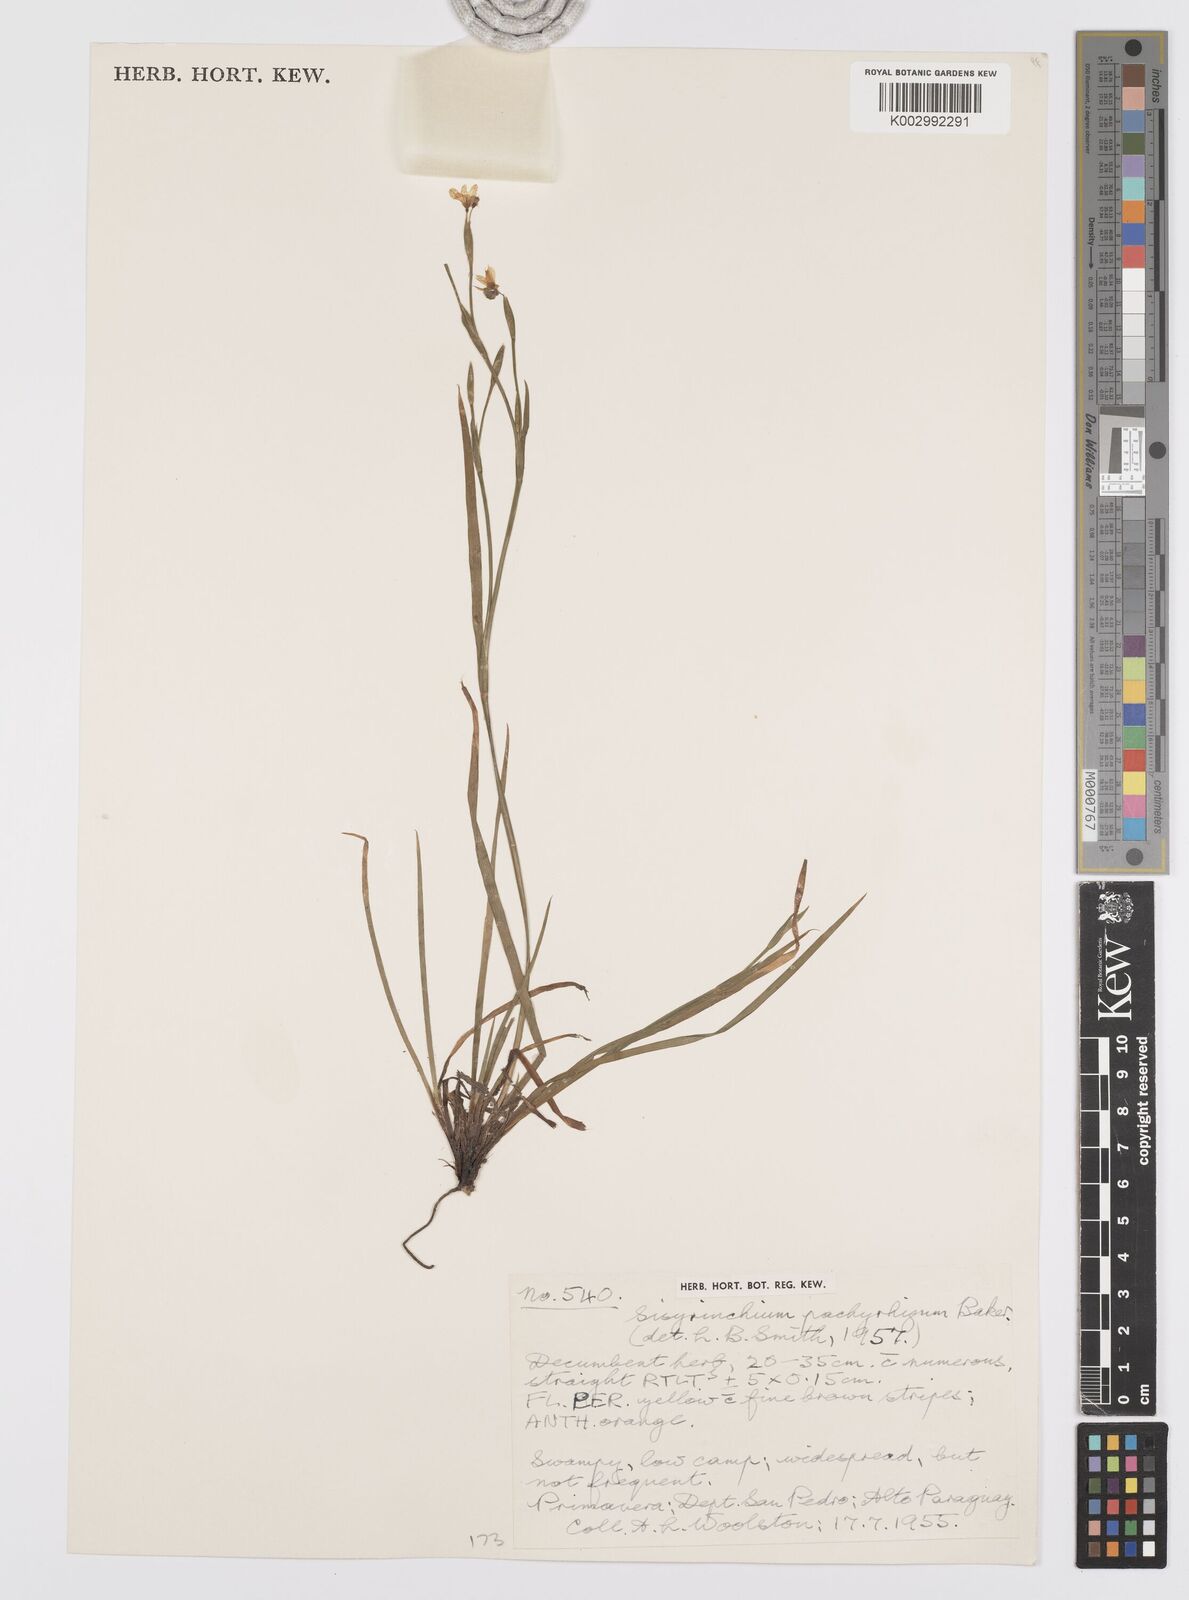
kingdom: Plantae
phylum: Tracheophyta
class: Liliopsida
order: Asparagales
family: Iridaceae
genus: Sisyrinchium
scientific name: Sisyrinchium pachyrhizum
